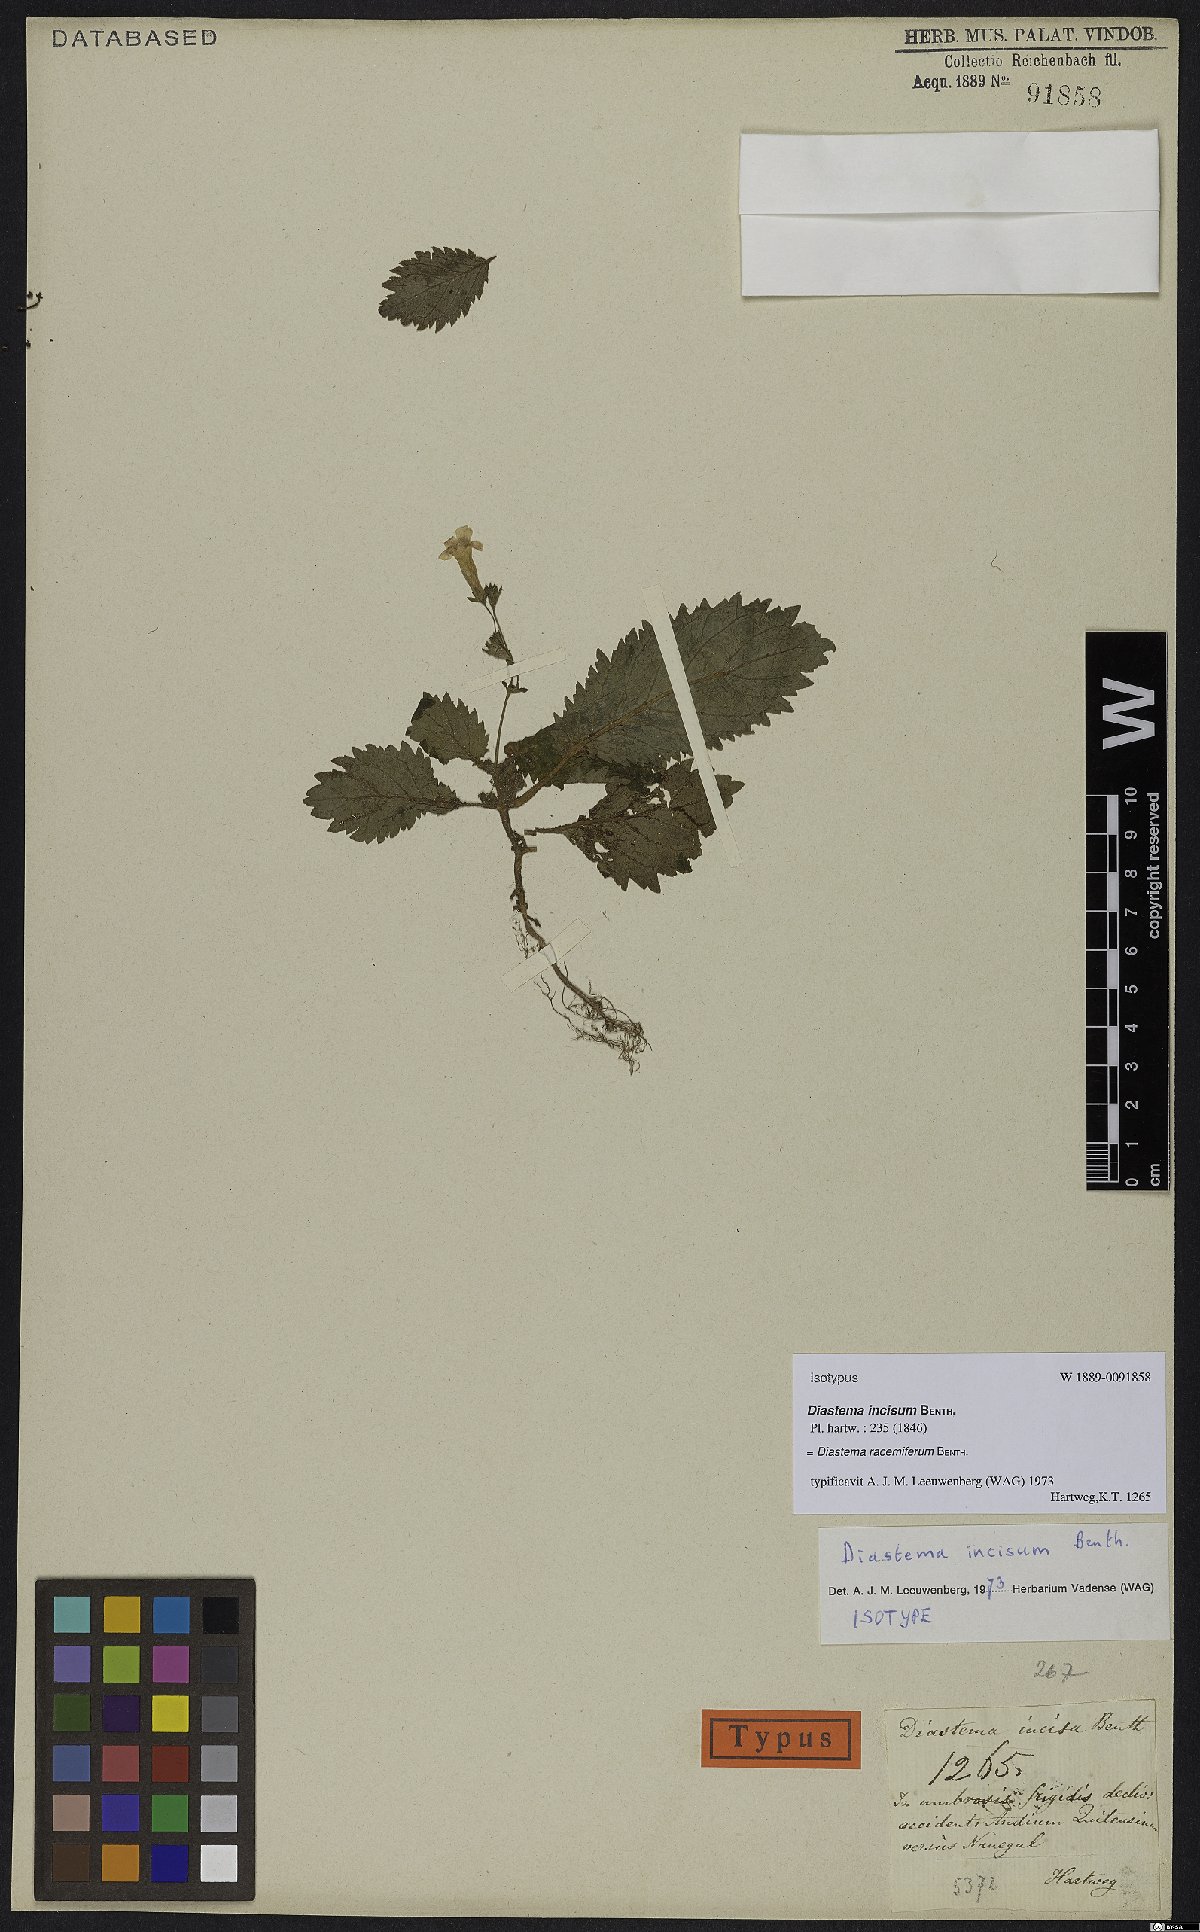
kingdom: Plantae
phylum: Tracheophyta
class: Magnoliopsida
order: Lamiales
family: Gesneriaceae
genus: Diastema
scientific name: Diastema racemiferum
